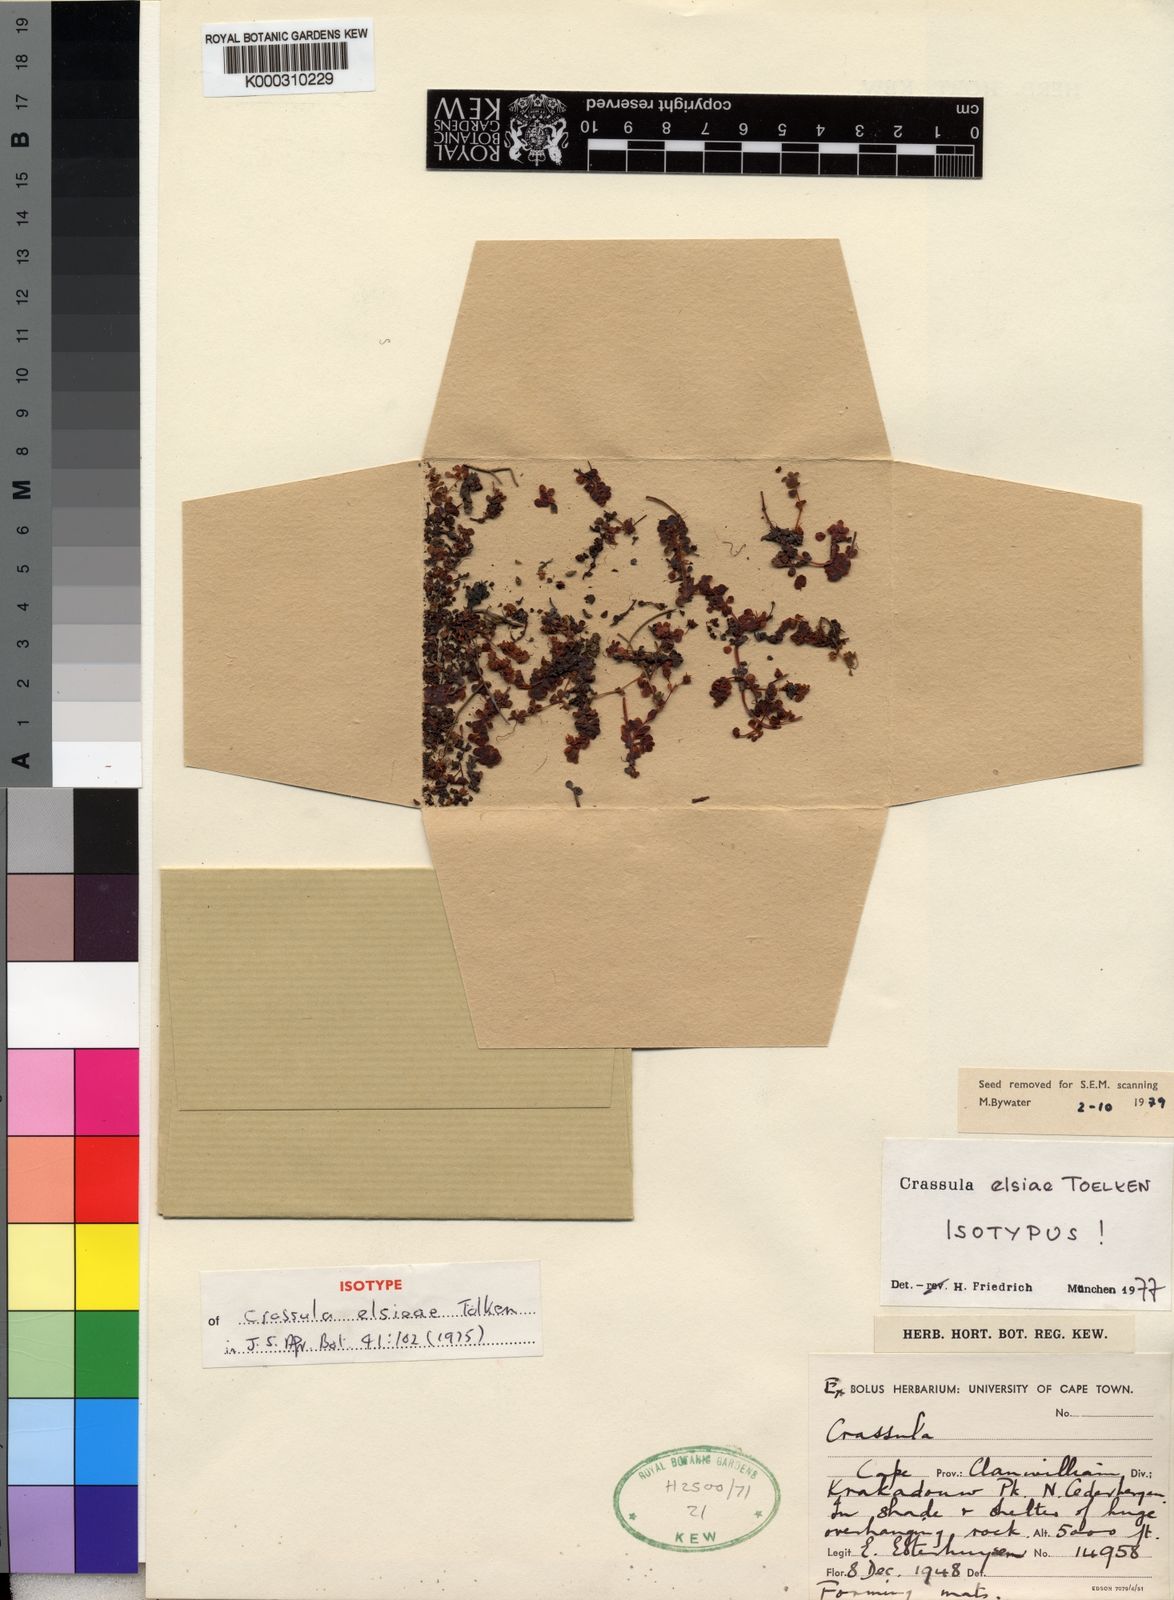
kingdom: Plantae
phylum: Tracheophyta
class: Magnoliopsida
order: Saxifragales
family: Crassulaceae
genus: Crassula
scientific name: Crassula
